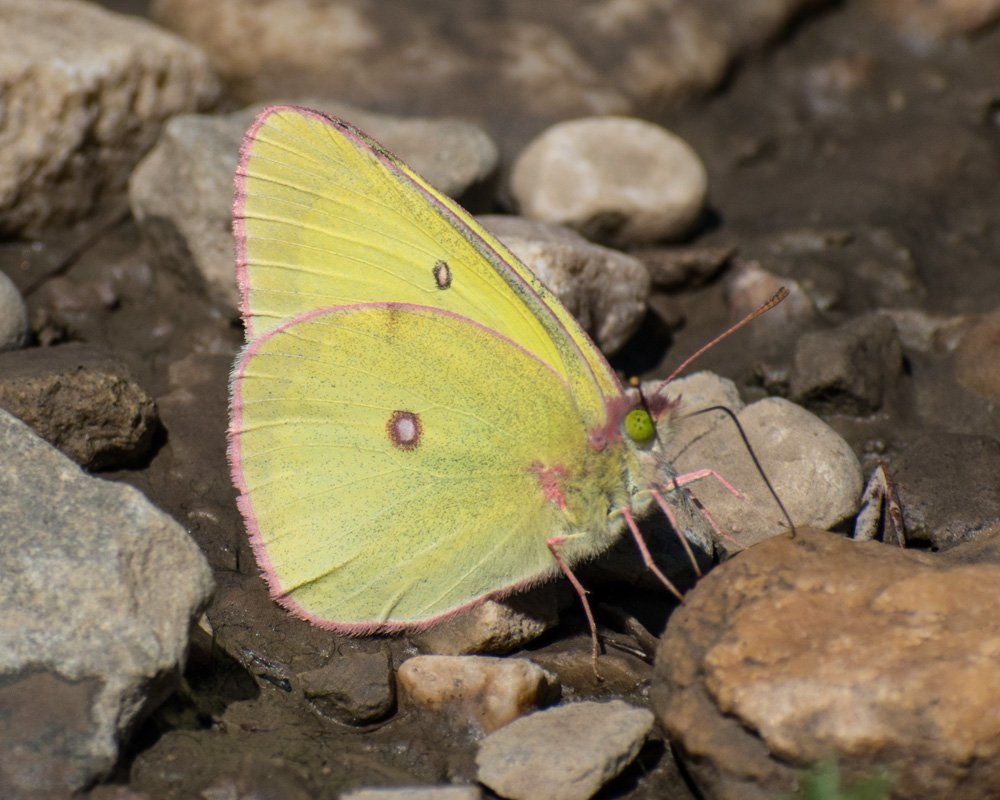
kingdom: Animalia
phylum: Arthropoda
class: Insecta
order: Lepidoptera
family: Pieridae
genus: Colias
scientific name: Colias interior
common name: Pink-edged Sulphur
